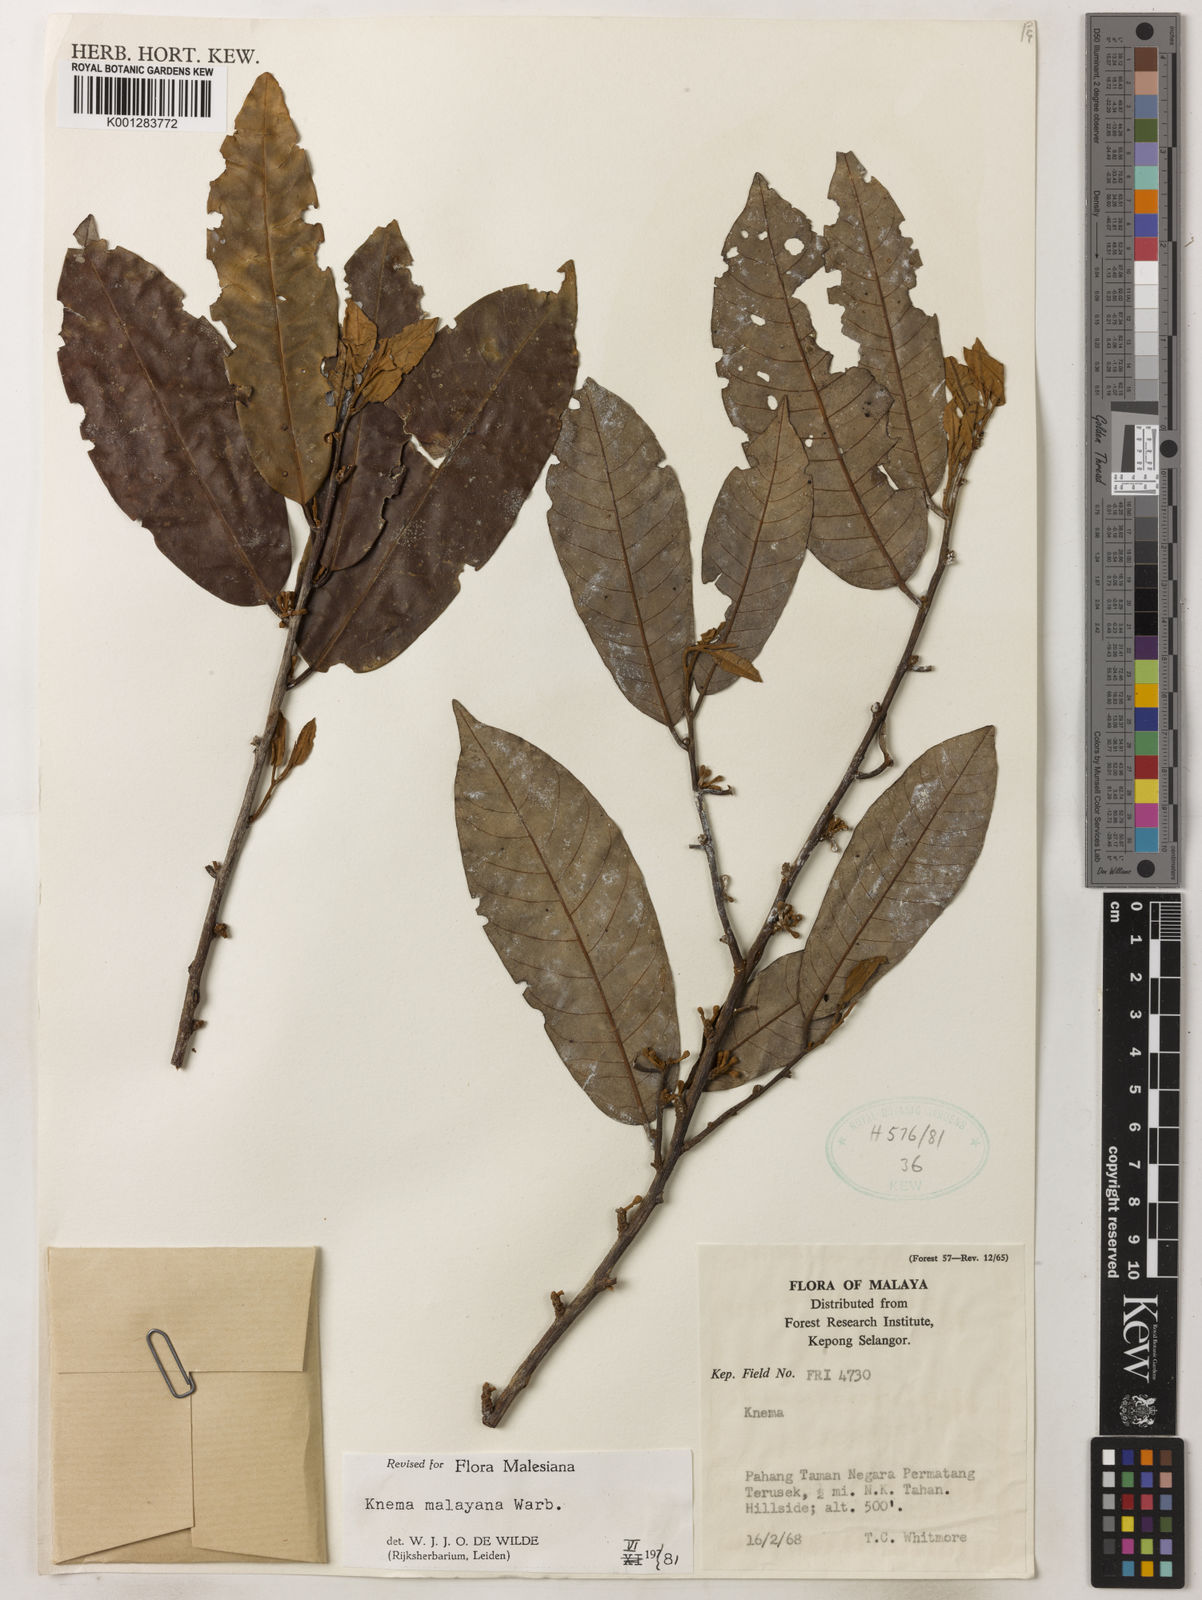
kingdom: Plantae
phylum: Tracheophyta
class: Magnoliopsida
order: Magnoliales
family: Myristicaceae
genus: Knema
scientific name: Knema malayana
